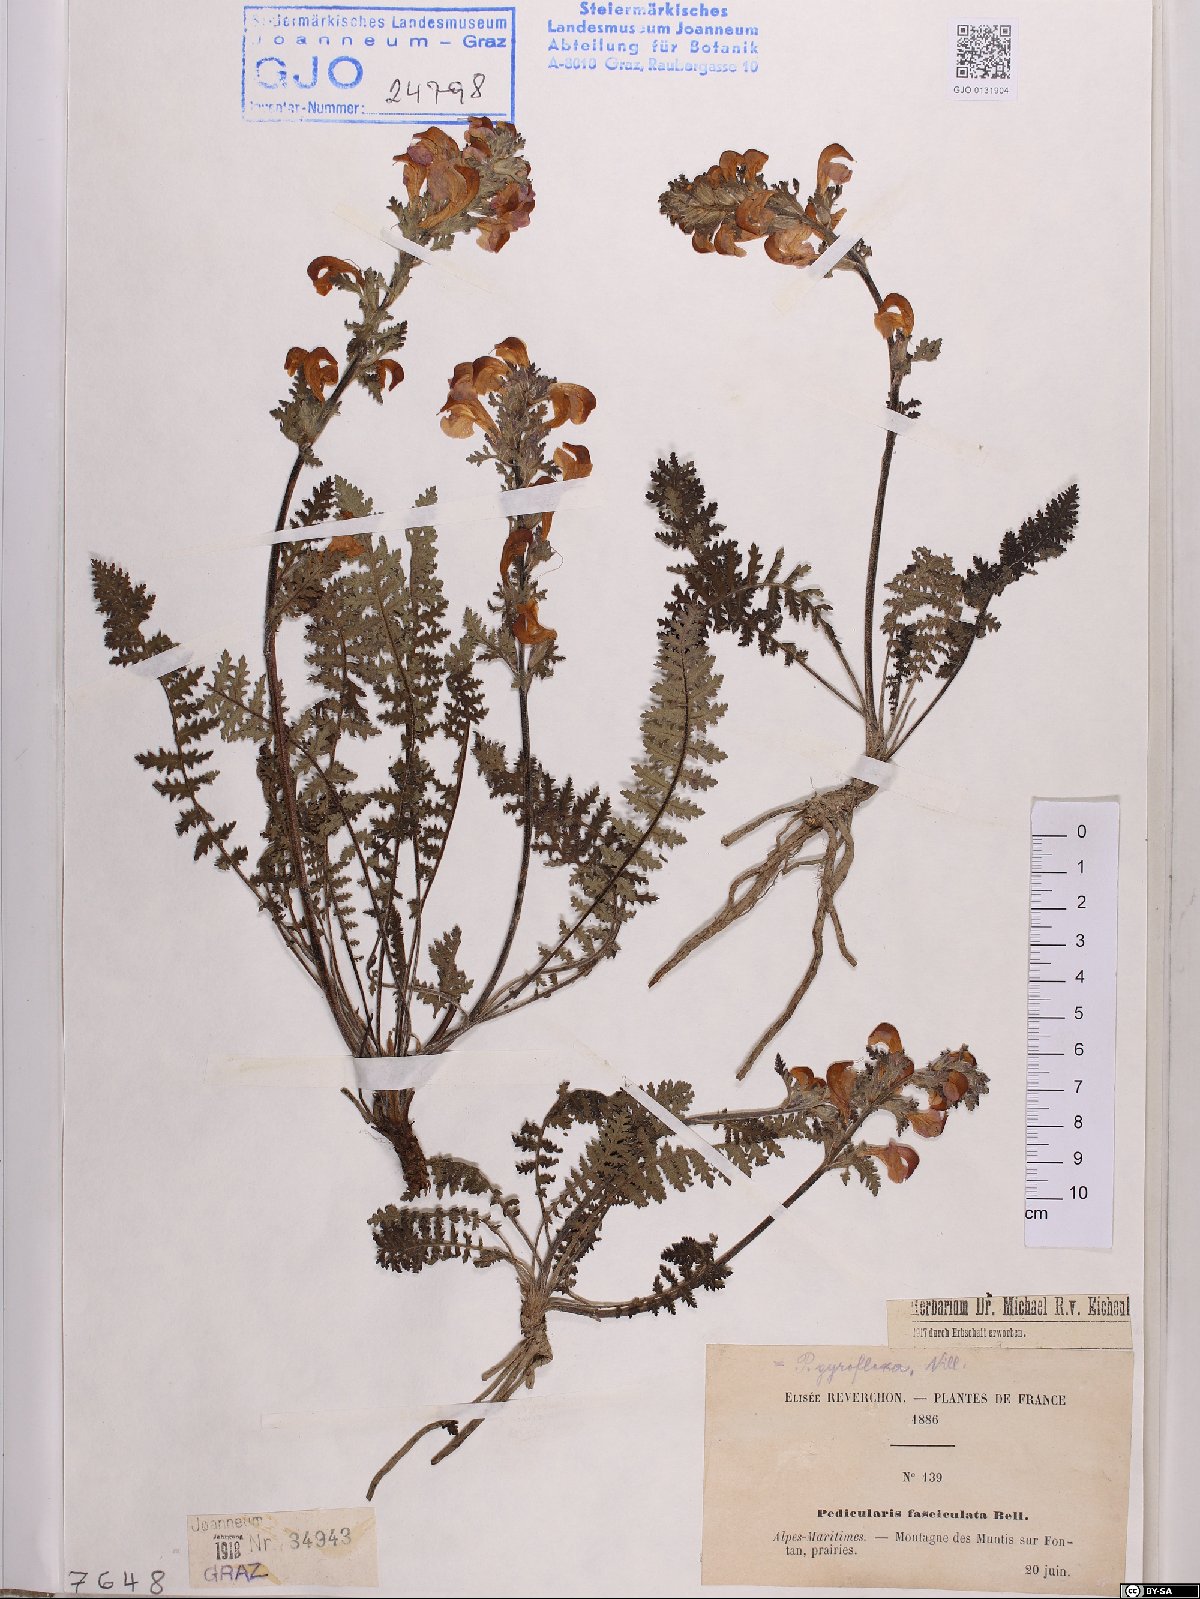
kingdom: Plantae
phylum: Tracheophyta
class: Magnoliopsida
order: Lamiales
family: Orobanchaceae
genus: Pedicularis
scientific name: Pedicularis gyroflexa
